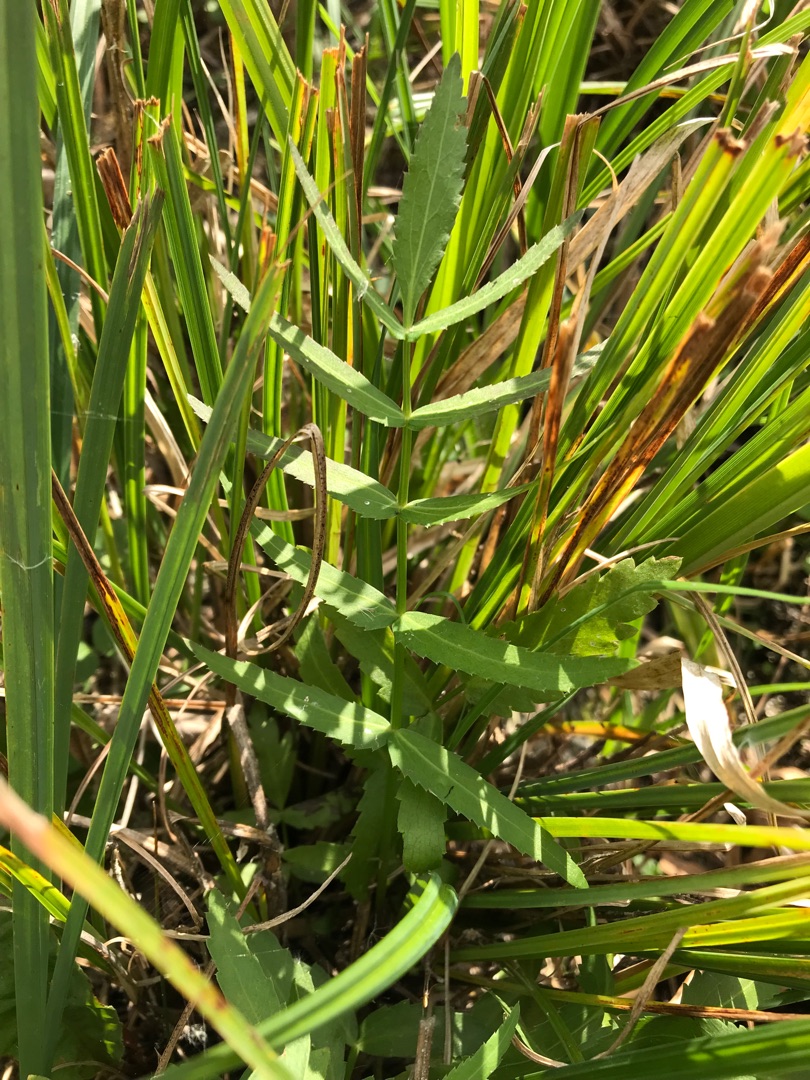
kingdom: Plantae
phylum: Tracheophyta
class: Magnoliopsida
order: Apiales
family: Apiaceae
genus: Sium
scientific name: Sium latifolium
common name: Bredbladet mærke
